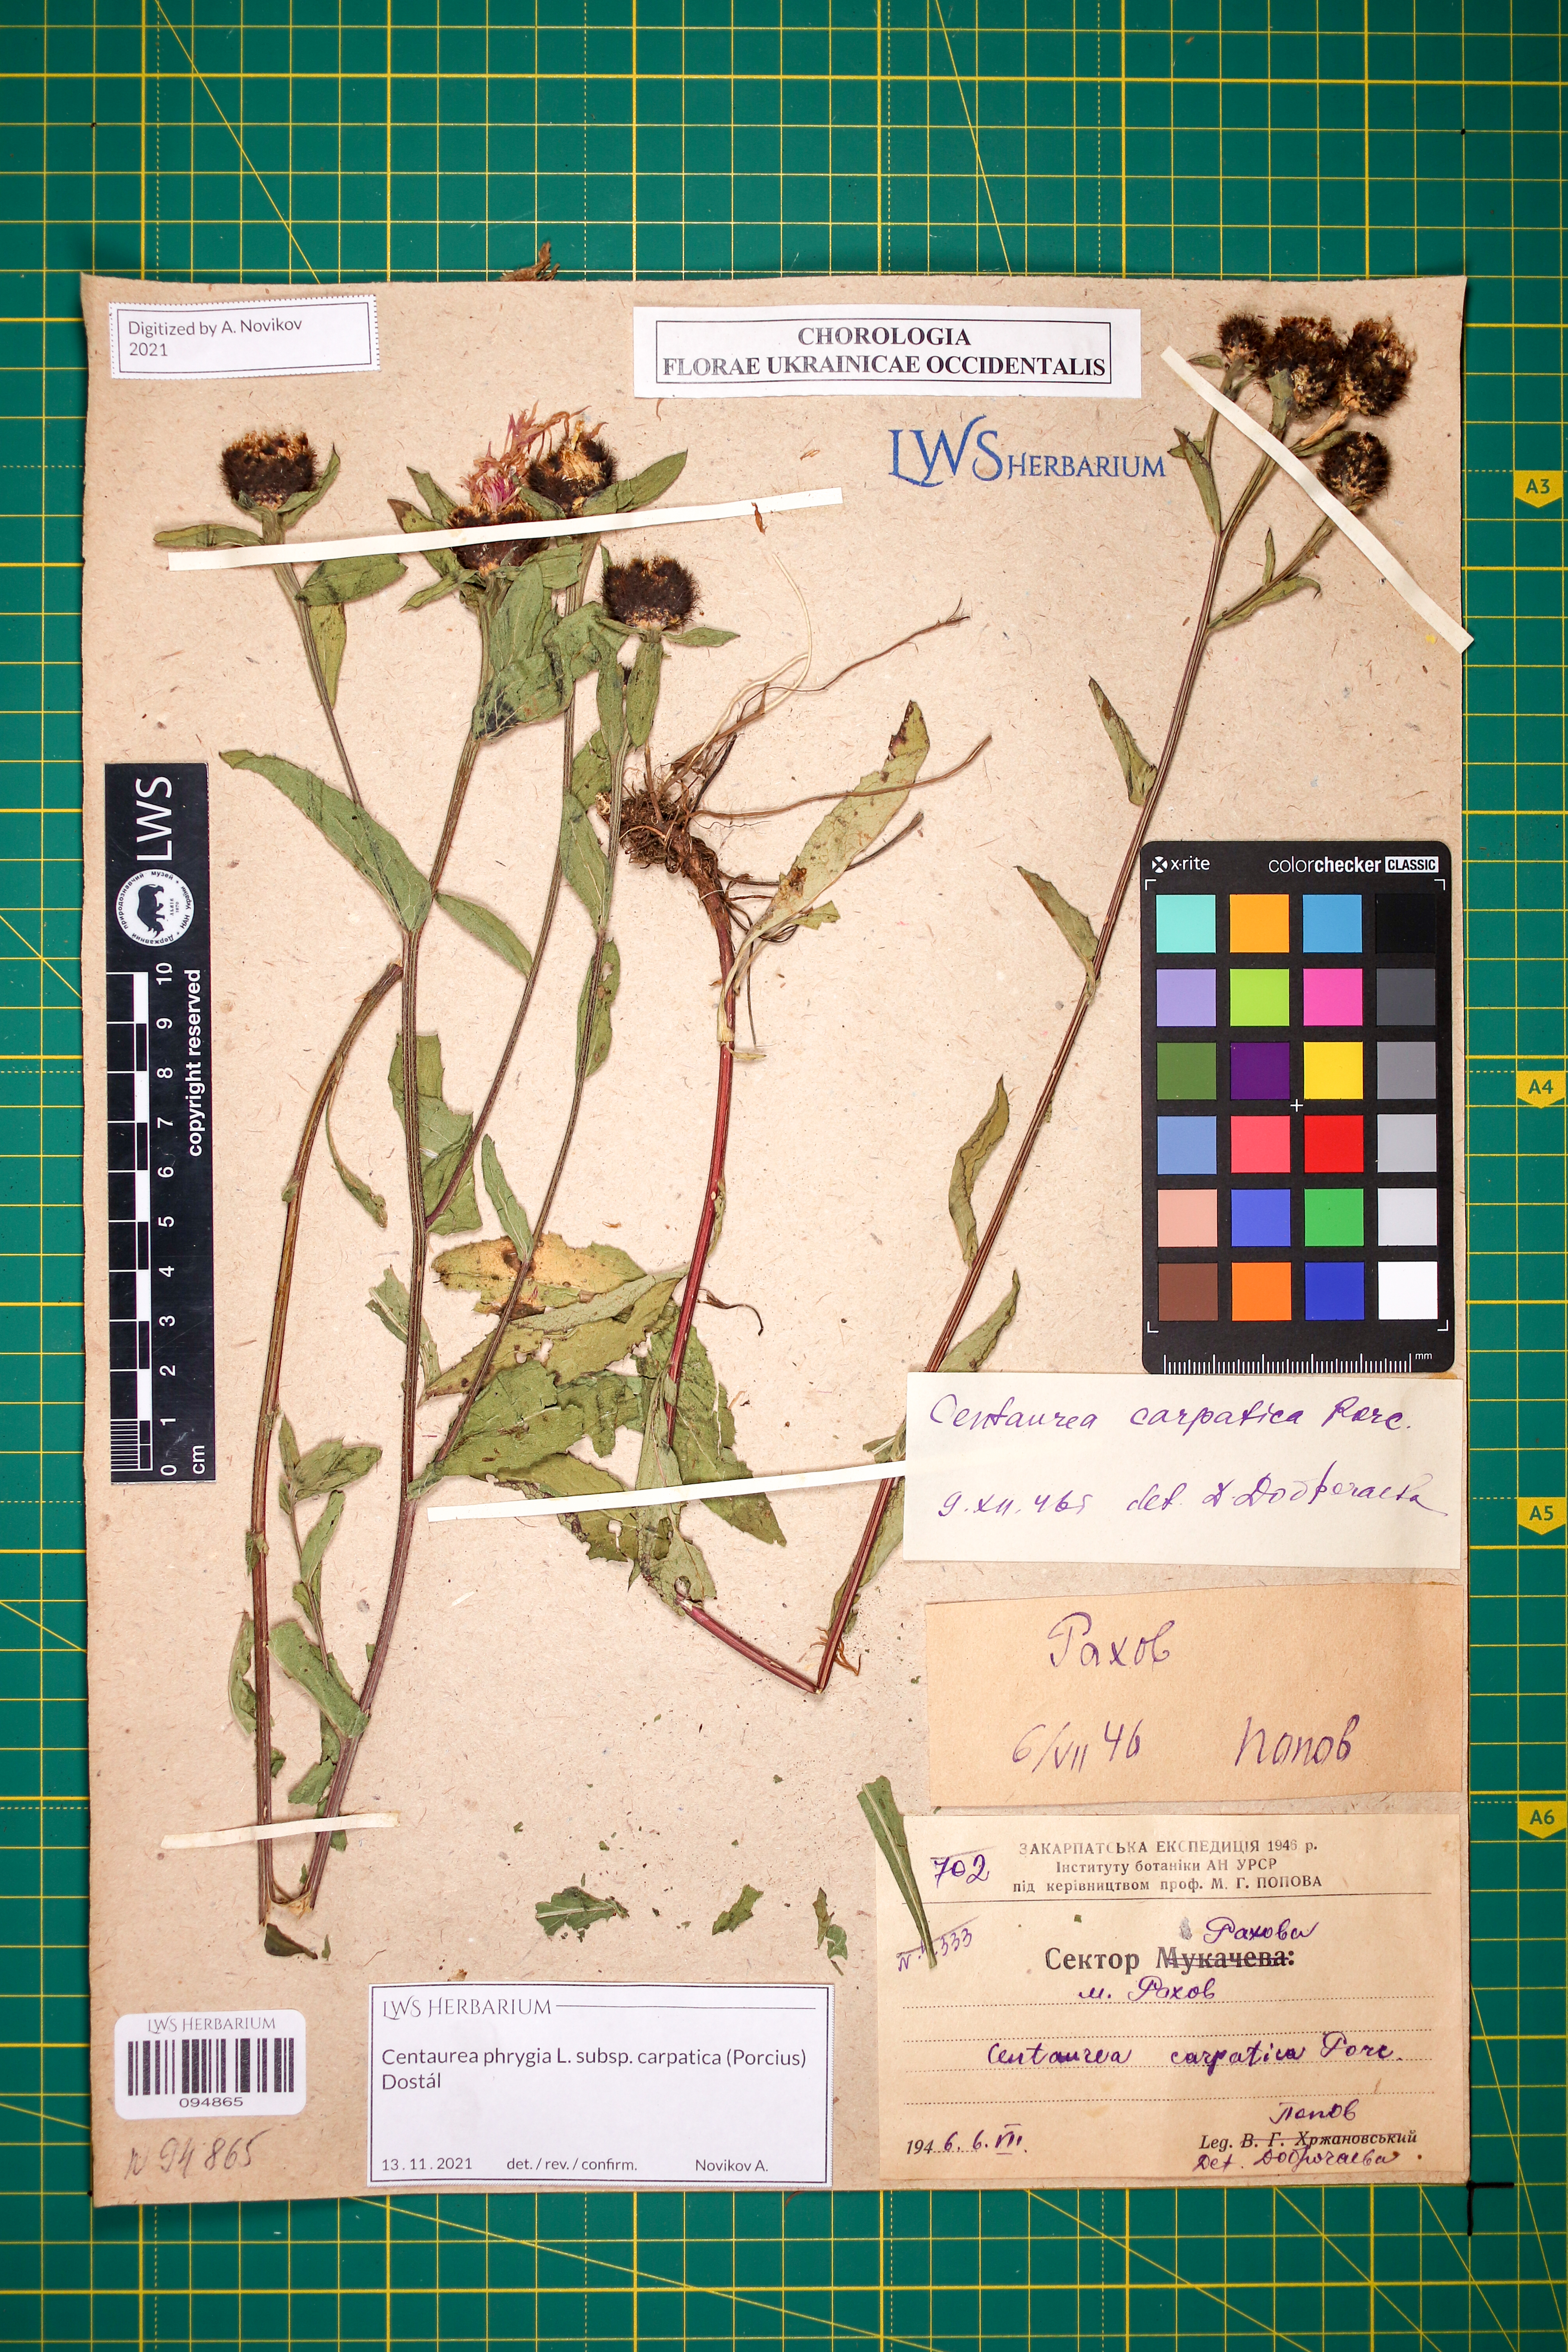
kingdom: Plantae
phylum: Tracheophyta
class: Magnoliopsida
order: Asterales
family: Asteraceae
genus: Centaurea
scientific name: Centaurea phrygia
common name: Wig knapweed
